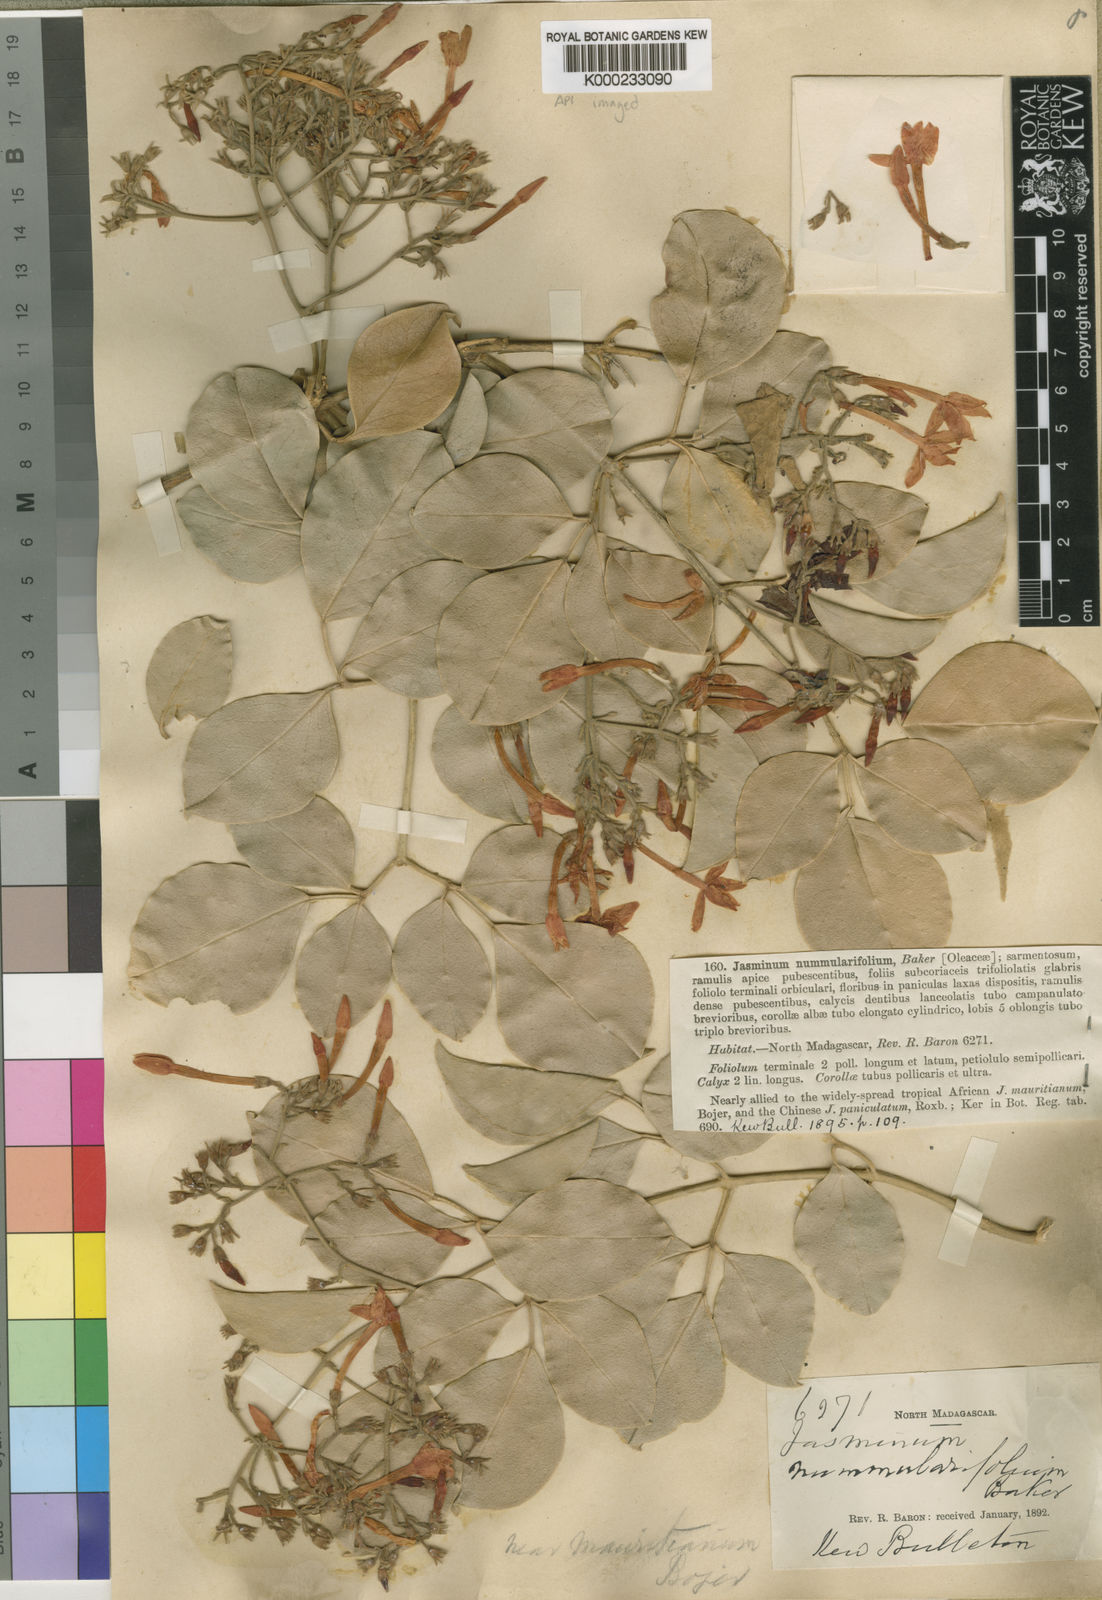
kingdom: Plantae
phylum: Tracheophyta
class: Magnoliopsida
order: Lamiales
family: Oleaceae
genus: Jasminum
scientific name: Jasminum nummulariifolium
